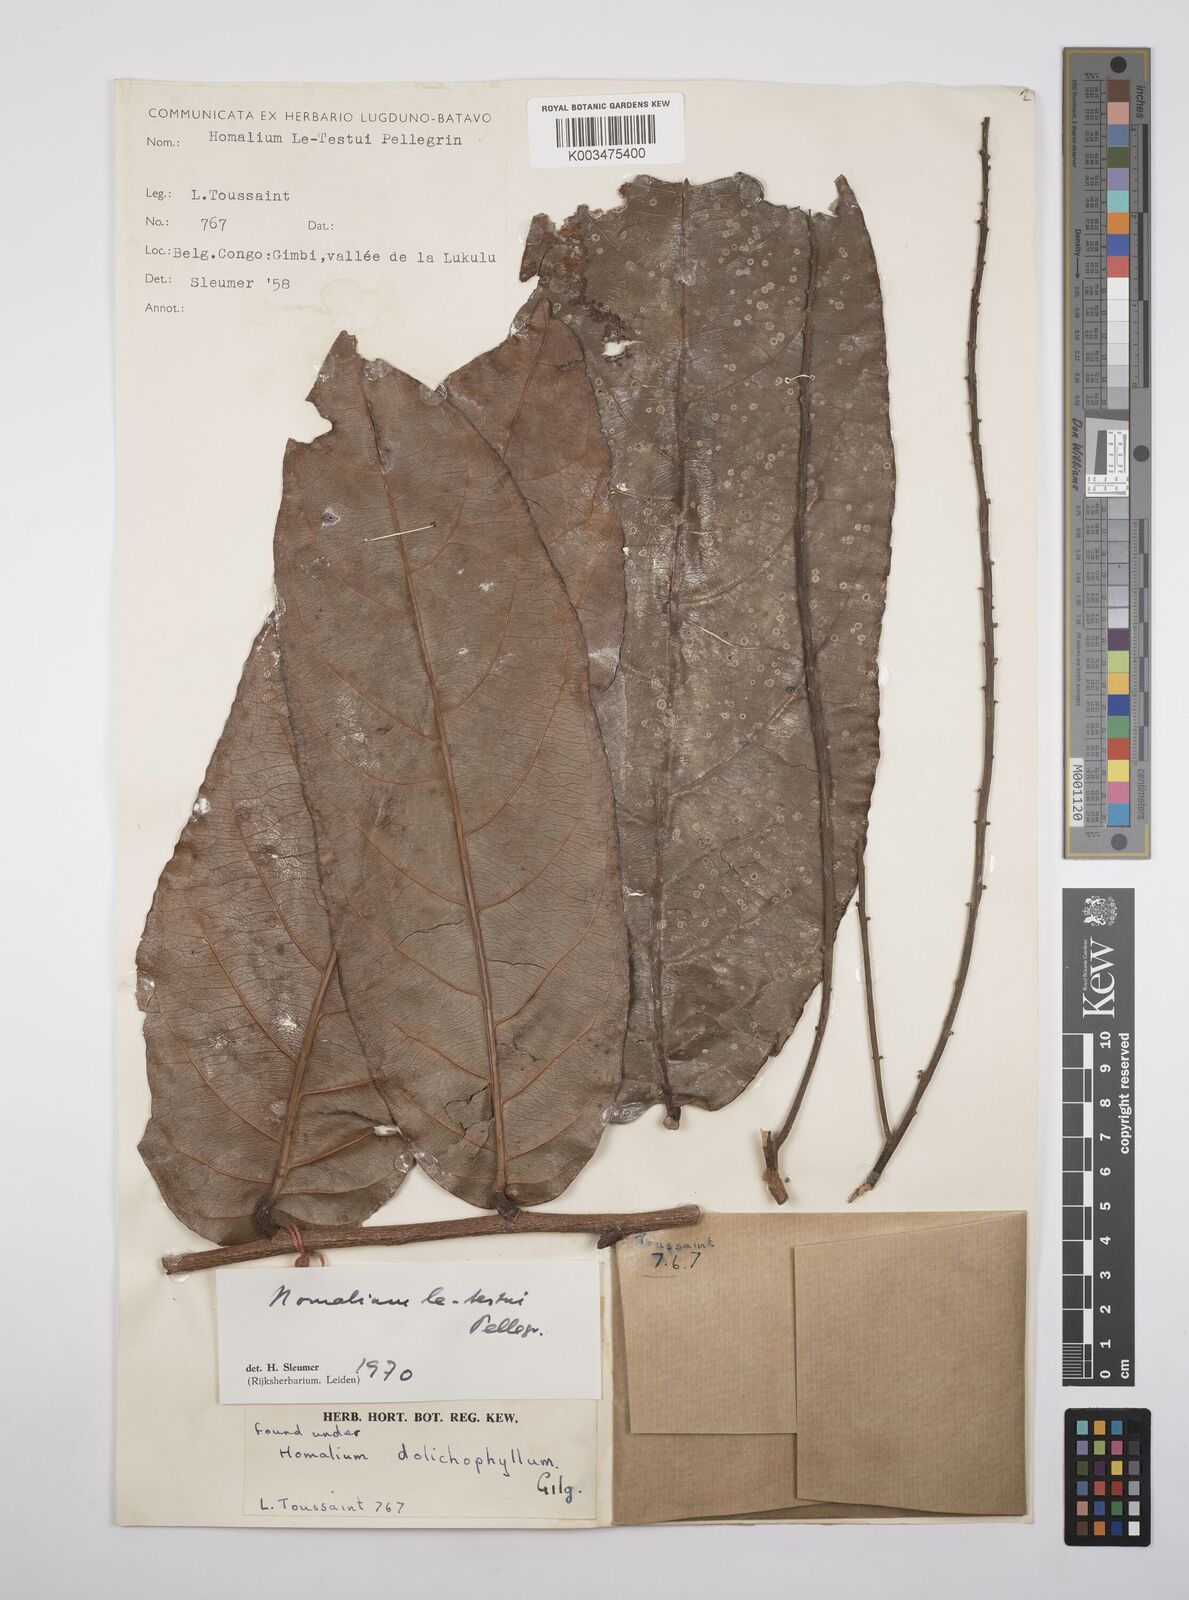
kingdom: Plantae
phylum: Tracheophyta
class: Magnoliopsida
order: Malpighiales
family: Salicaceae
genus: Homalium
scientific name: Homalium letestui
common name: African homalium
